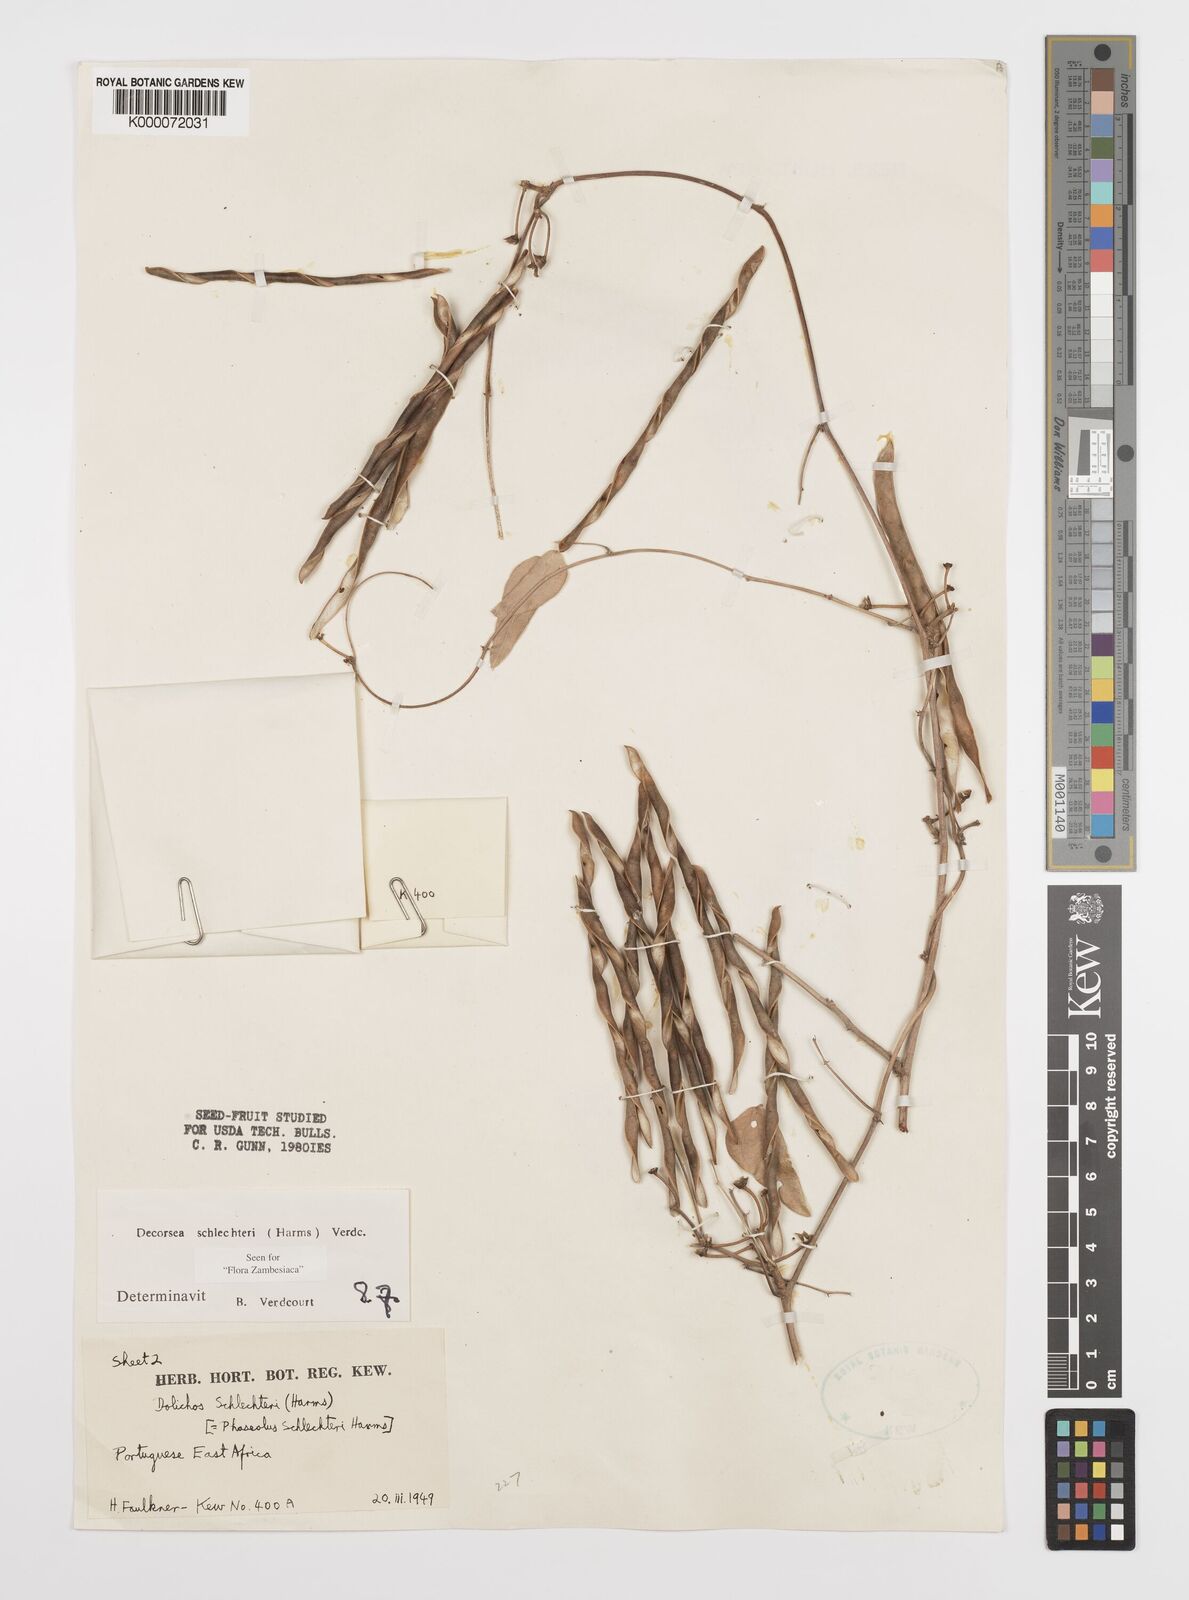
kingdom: Plantae
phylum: Tracheophyta
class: Magnoliopsida
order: Fabales
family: Fabaceae
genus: Decorsea
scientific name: Decorsea schlechteri
